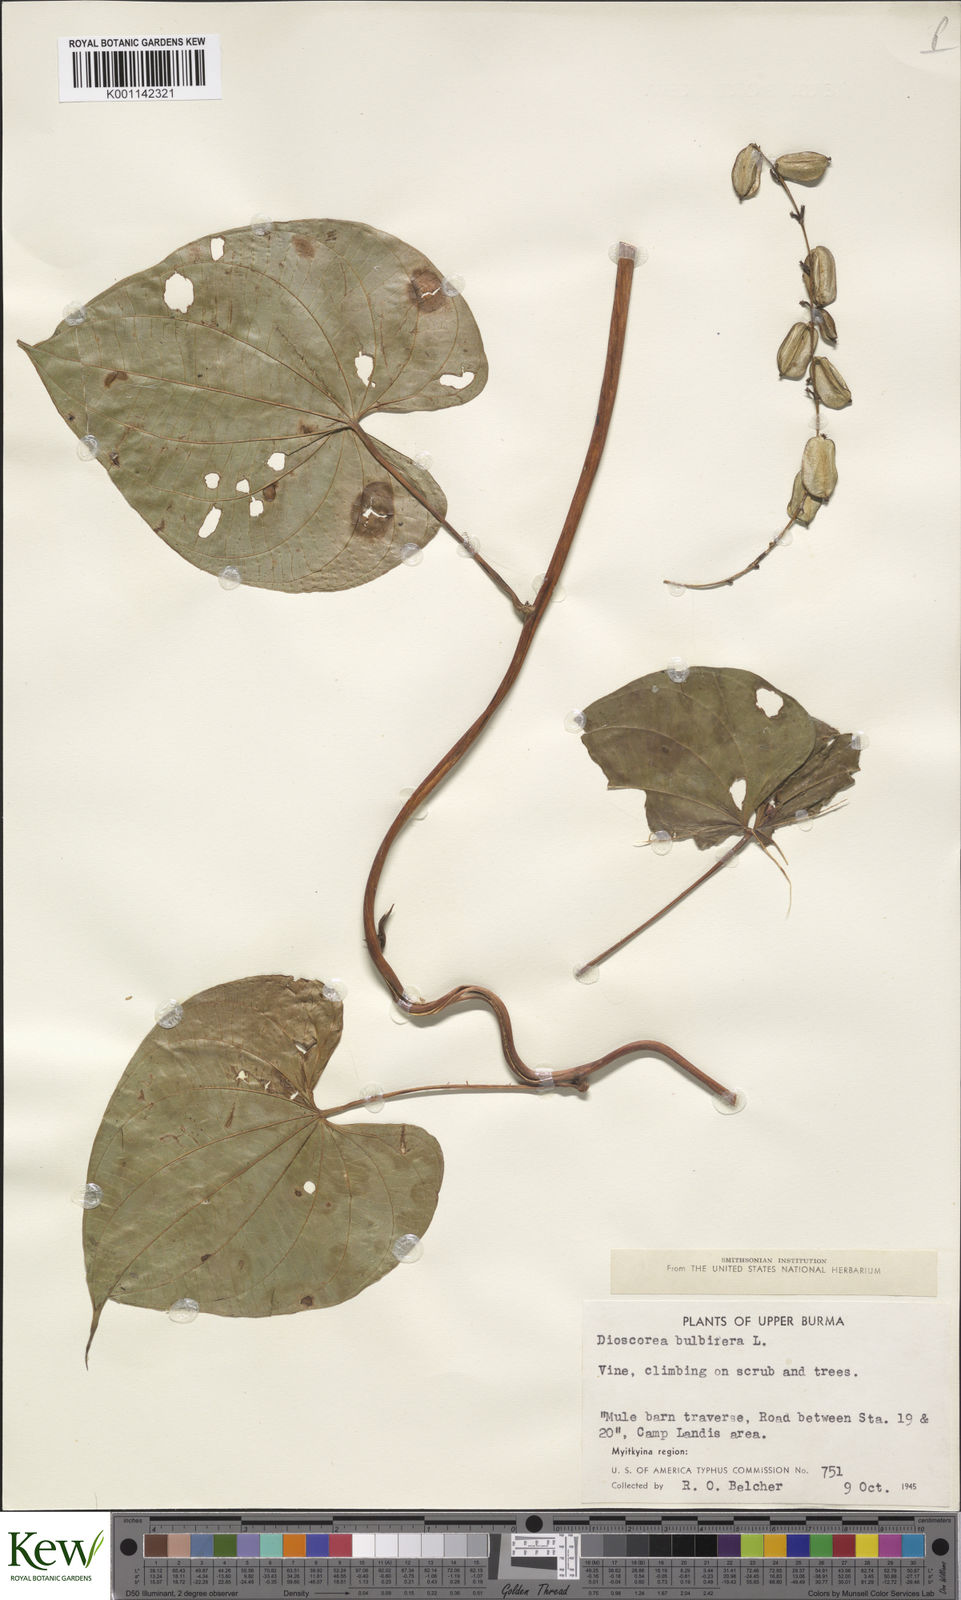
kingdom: Plantae
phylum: Tracheophyta
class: Liliopsida
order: Dioscoreales
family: Dioscoreaceae
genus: Dioscorea
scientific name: Dioscorea bulbifera
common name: Air yam
